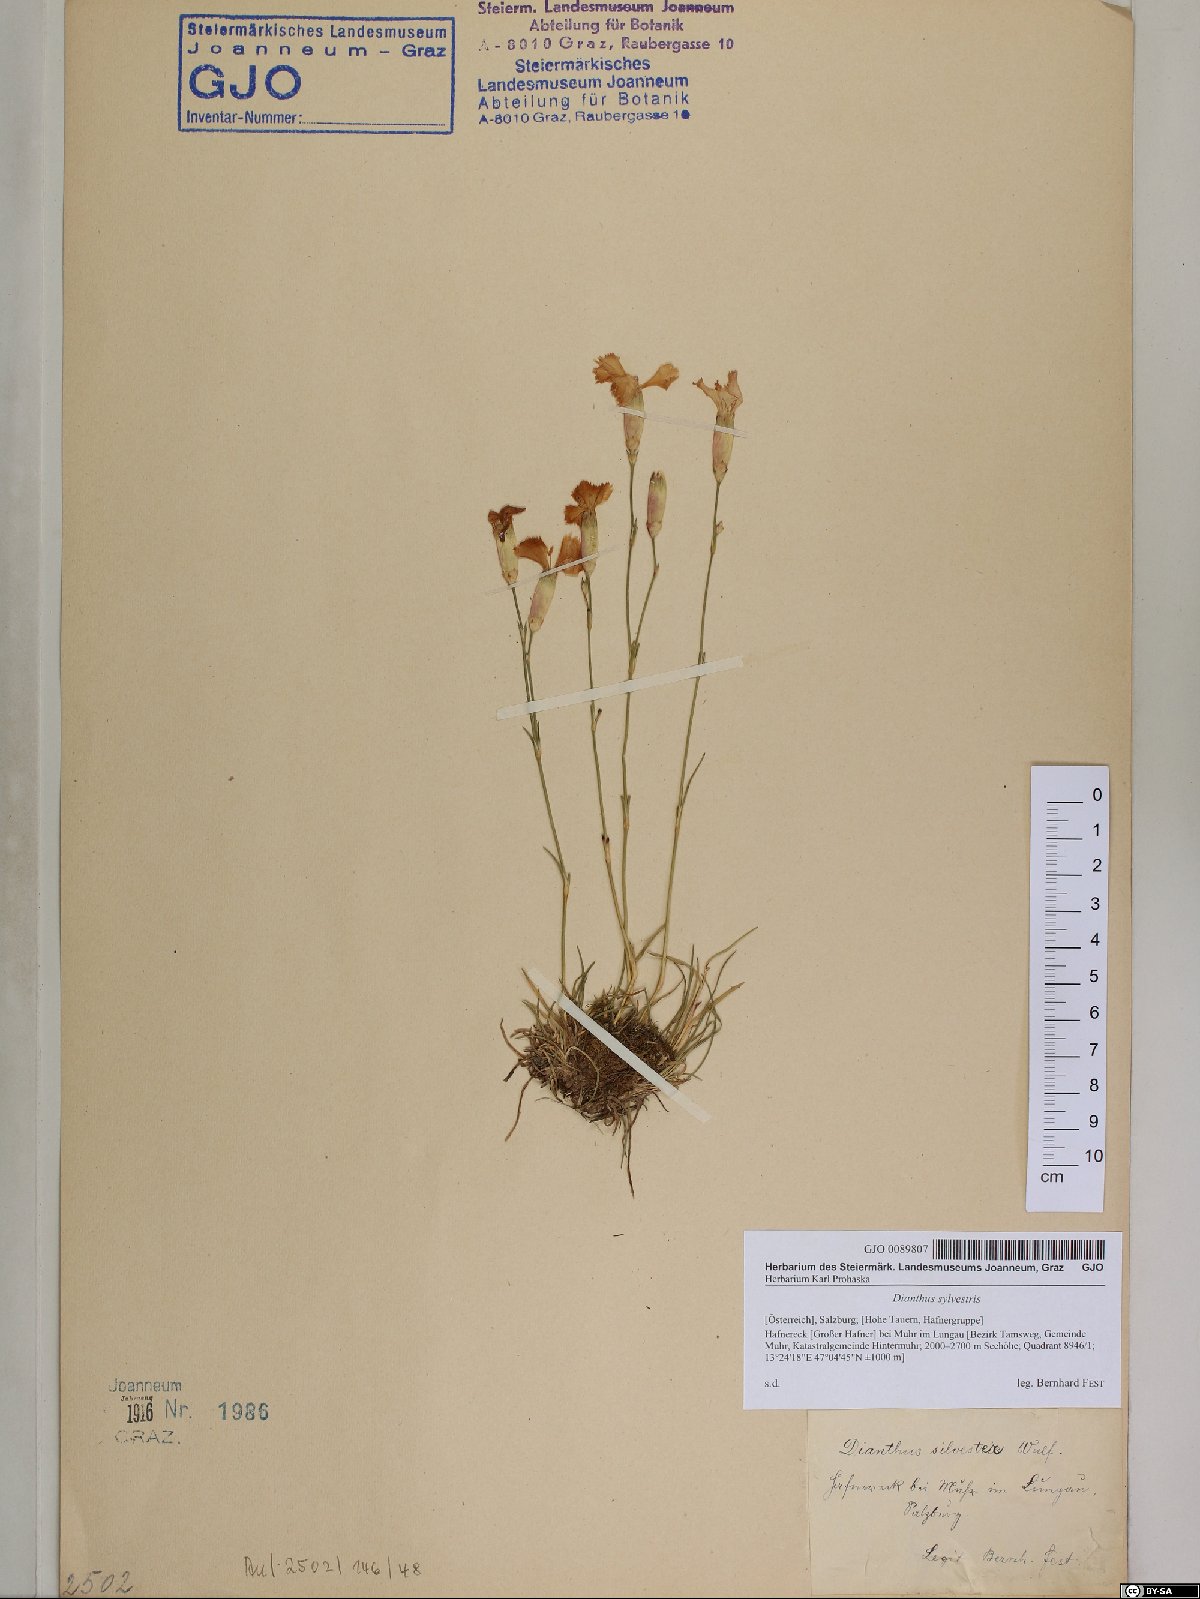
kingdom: Plantae
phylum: Tracheophyta
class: Magnoliopsida
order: Caryophyllales
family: Caryophyllaceae
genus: Dianthus
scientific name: Dianthus sylvestris
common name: Wood pink
